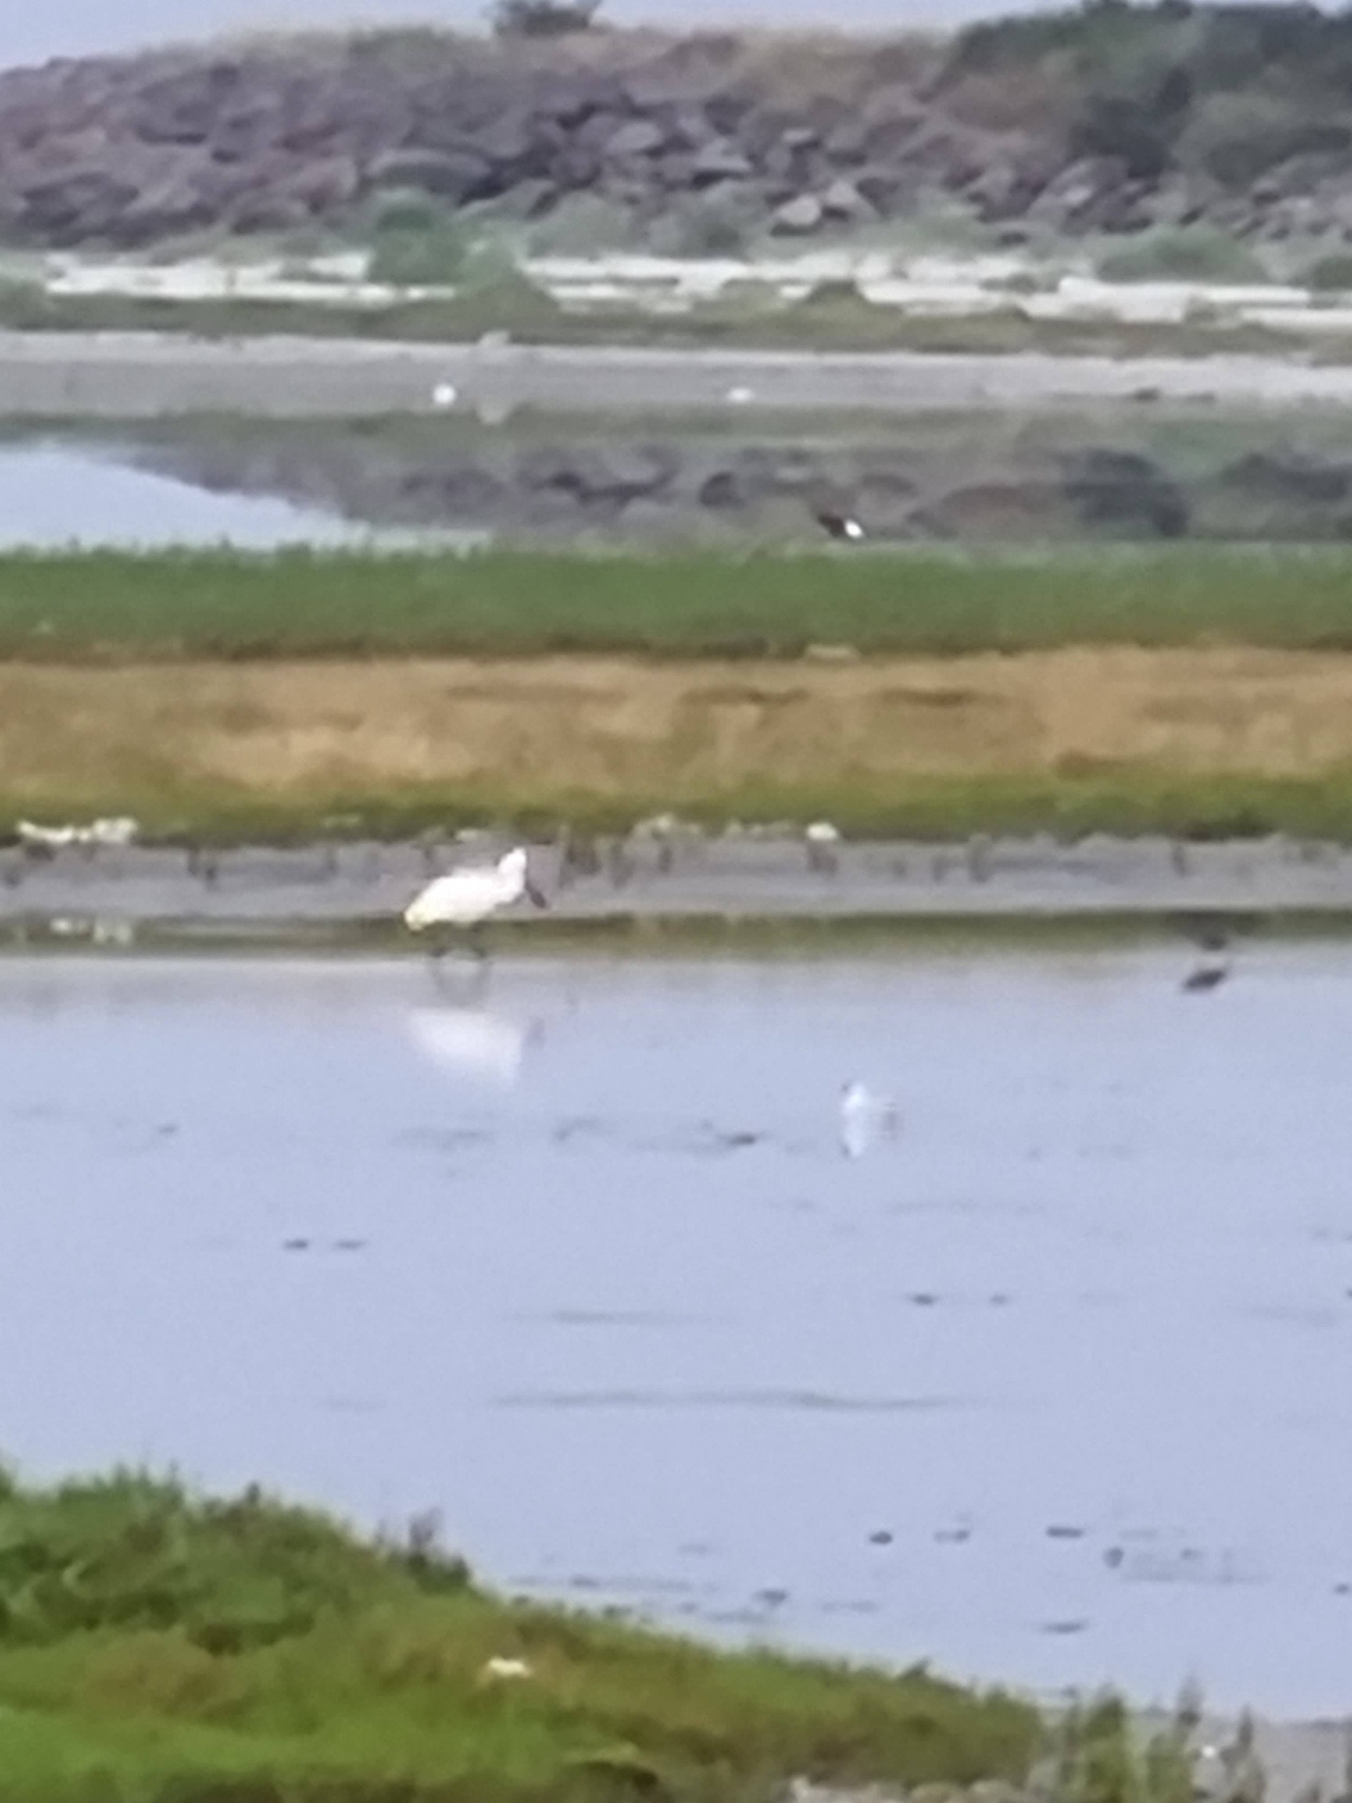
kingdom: Animalia
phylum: Chordata
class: Aves
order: Pelecaniformes
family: Threskiornithidae
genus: Platalea
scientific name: Platalea leucorodia
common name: Skestork
